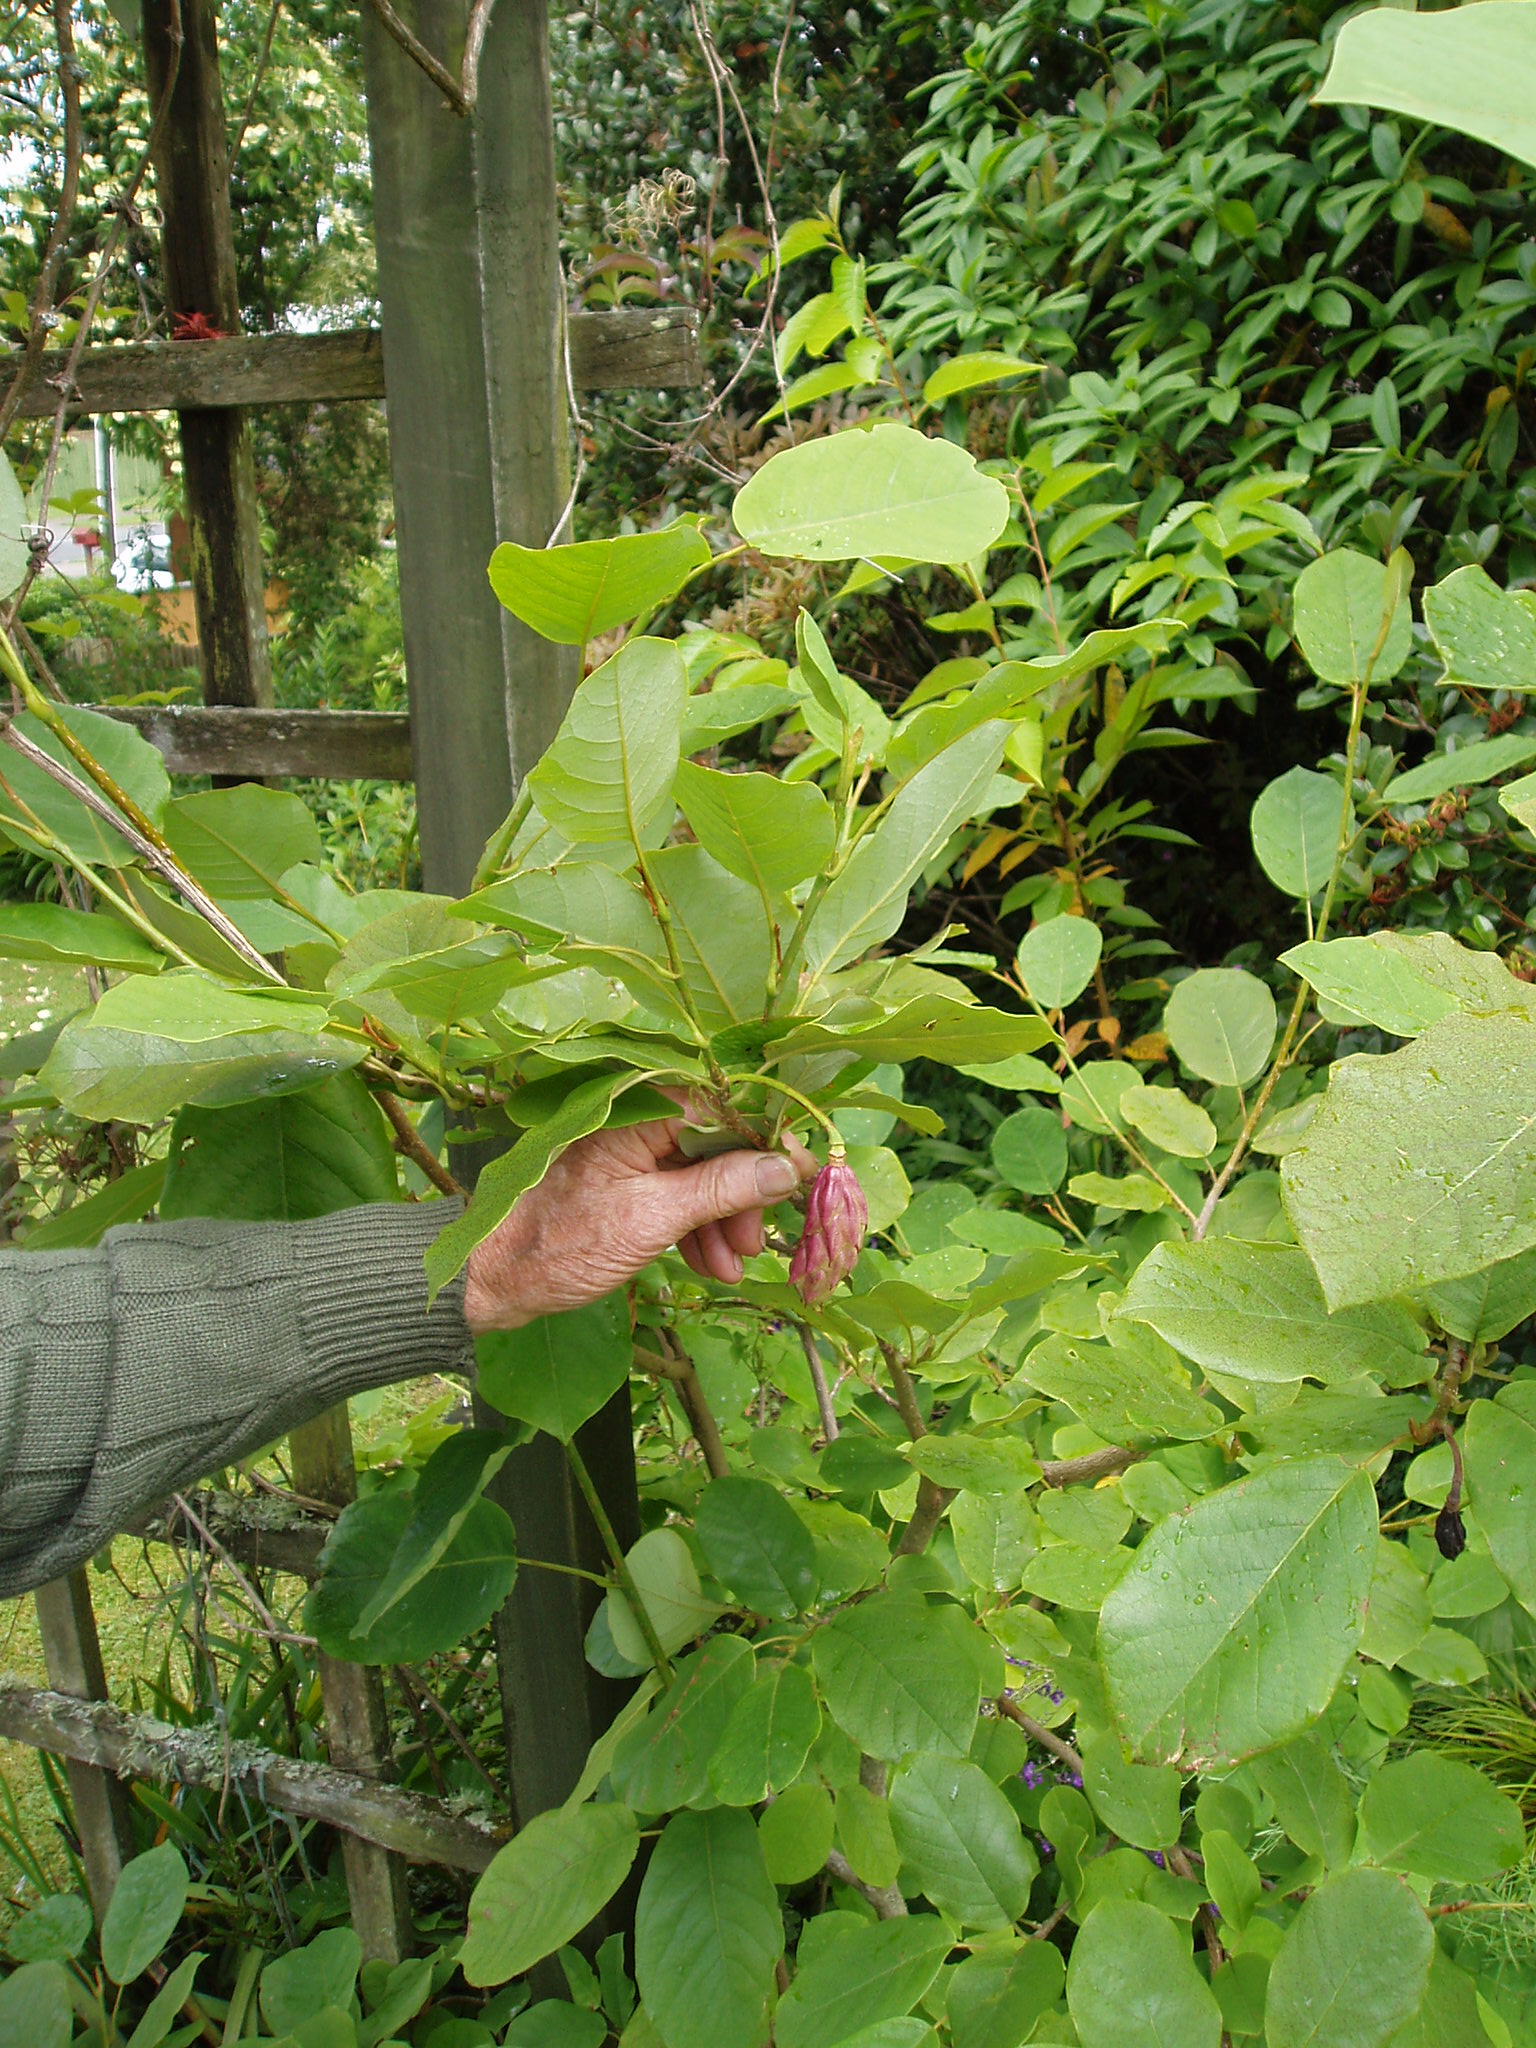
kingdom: Plantae
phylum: Tracheophyta
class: Magnoliopsida
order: Magnoliales
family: Magnoliaceae
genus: Magnolia
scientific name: Magnolia sieboldii
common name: Oyama magnolia
